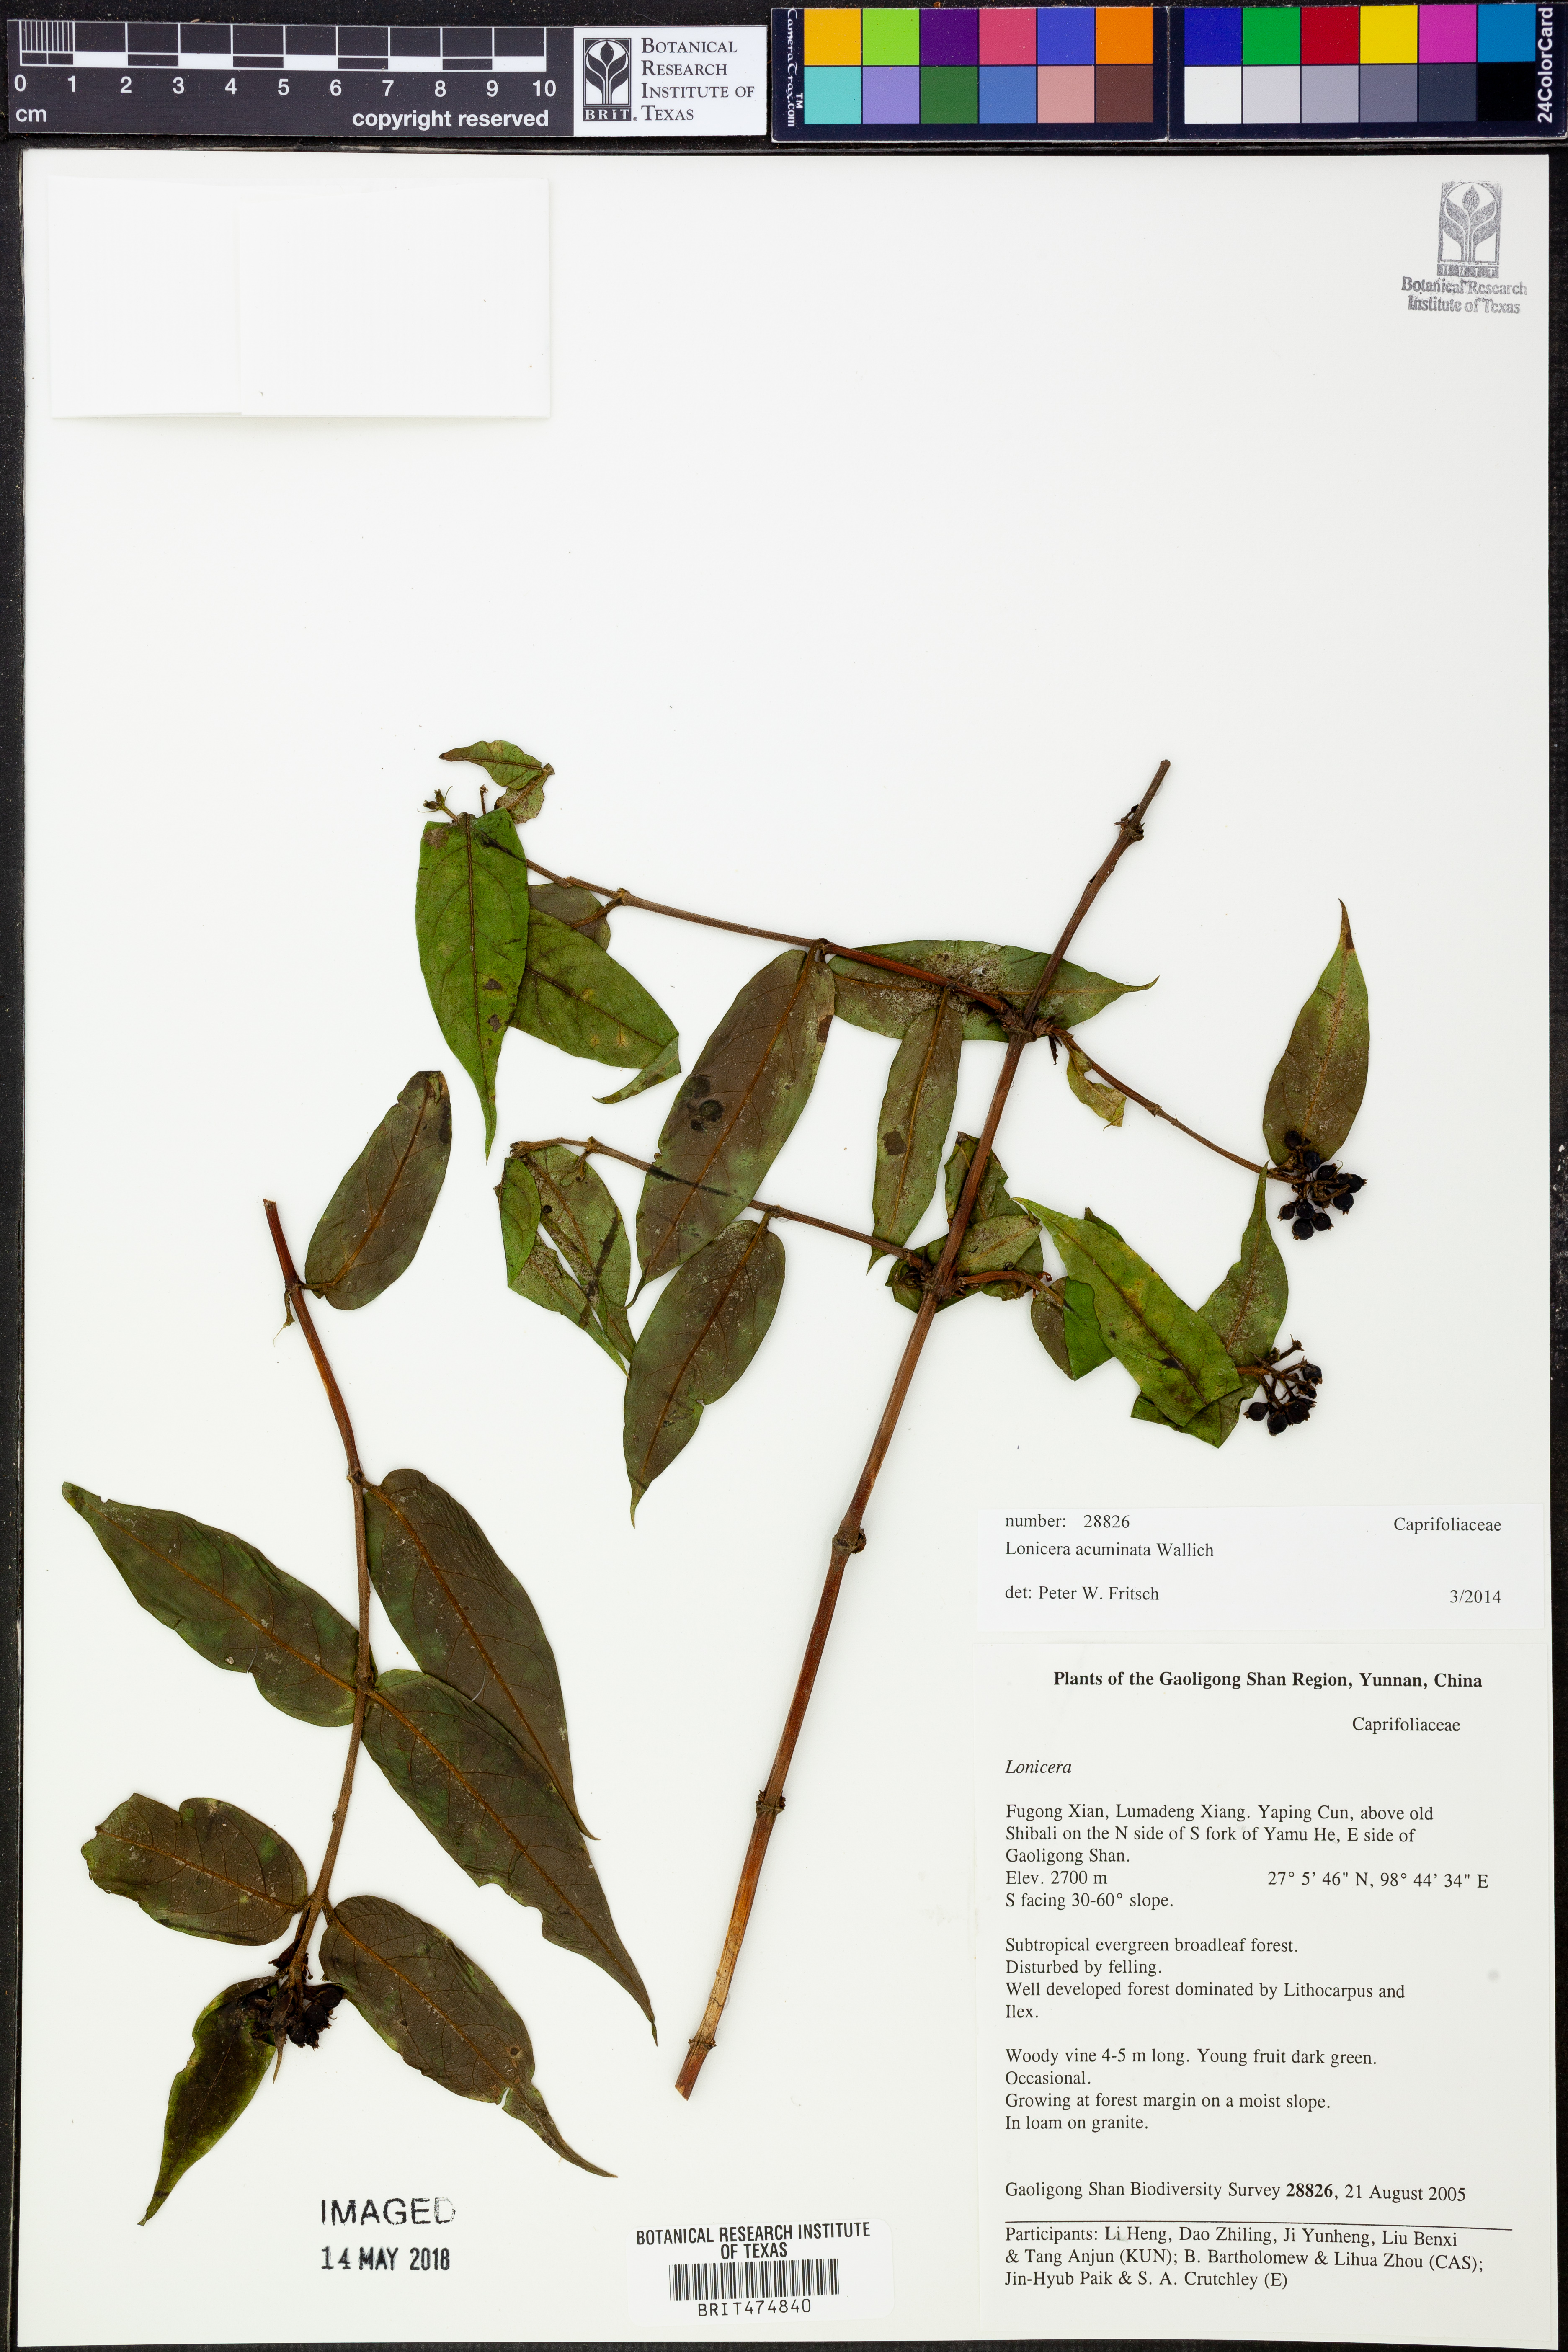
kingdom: Plantae
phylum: Tracheophyta
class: Magnoliopsida
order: Dipsacales
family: Caprifoliaceae
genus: Lonicera
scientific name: Lonicera acuminata
